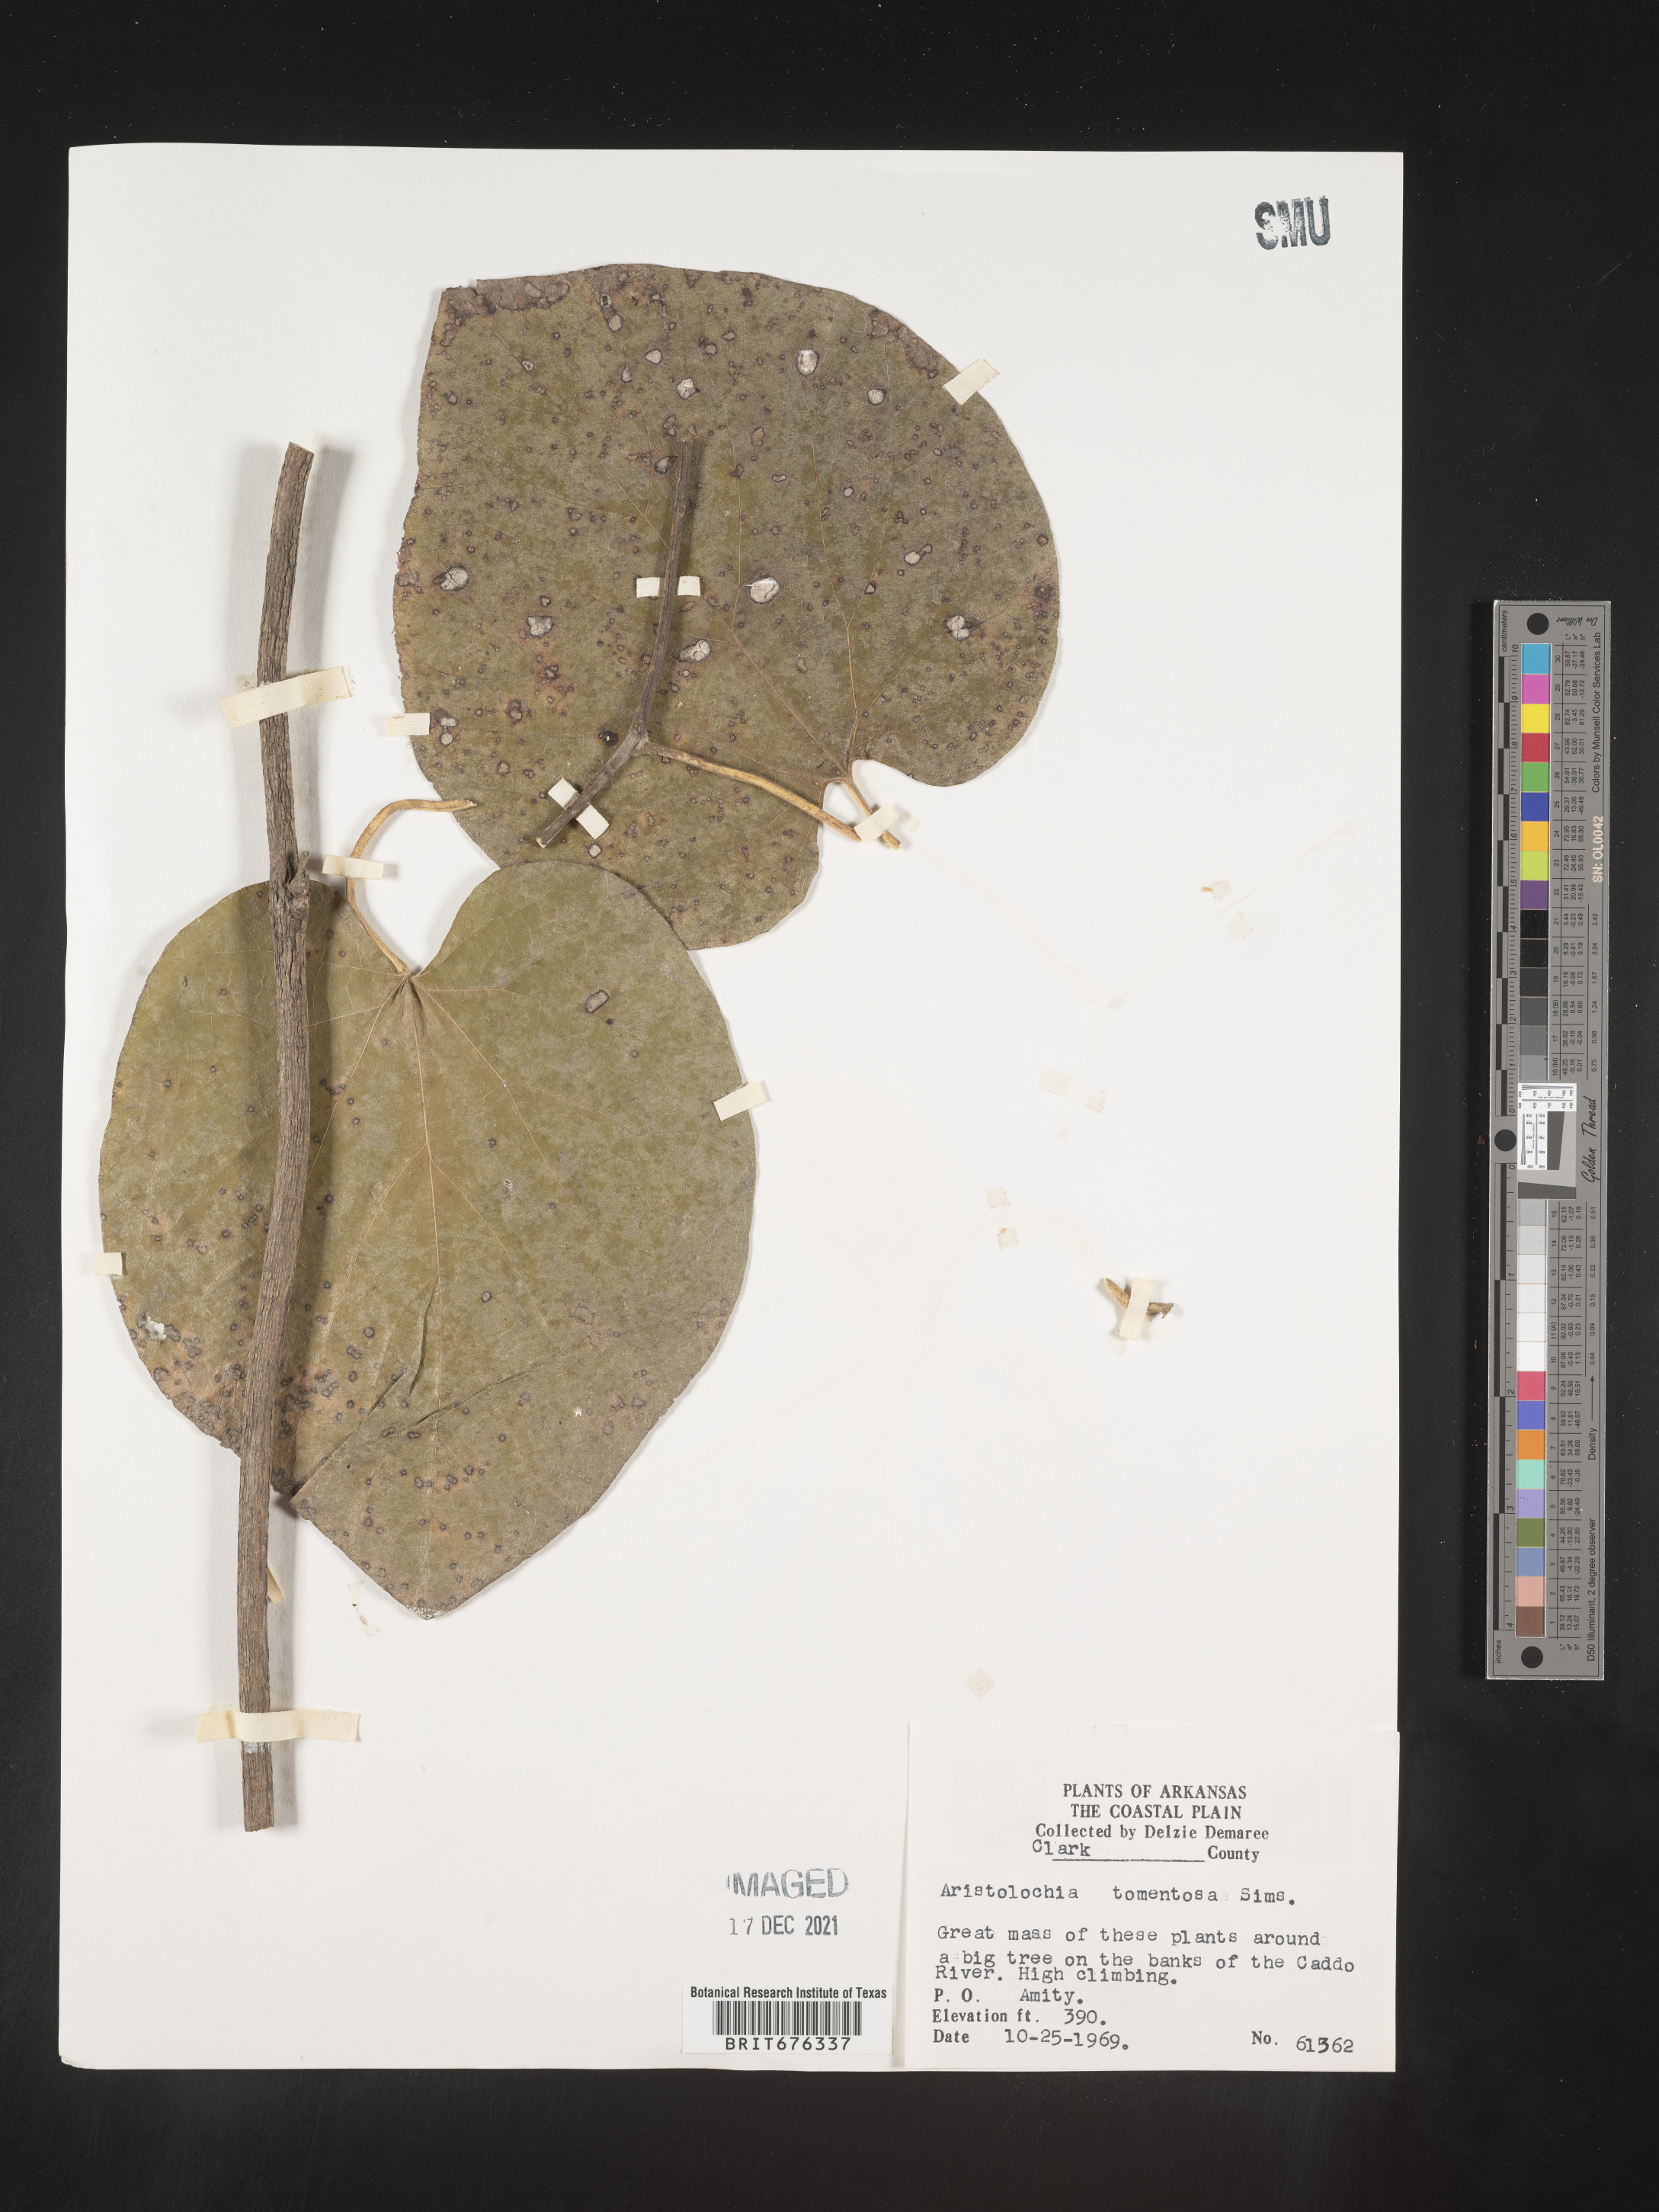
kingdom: Plantae
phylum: Tracheophyta
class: Magnoliopsida
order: Piperales
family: Aristolochiaceae
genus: Isotrema
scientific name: Isotrema tomentosum
